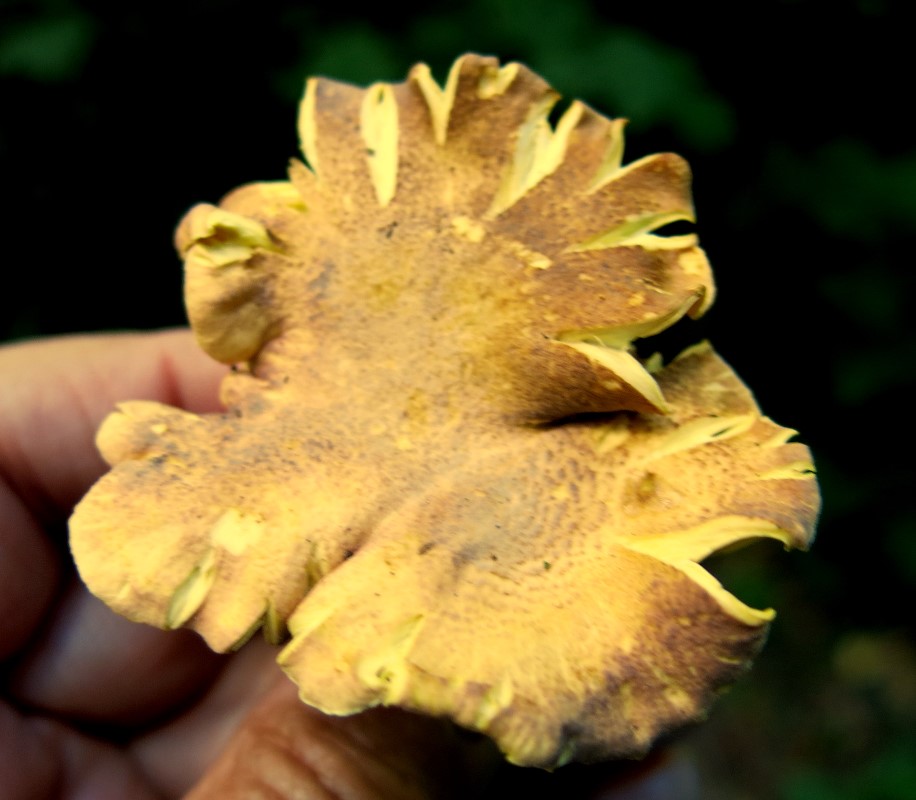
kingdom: Fungi
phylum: Basidiomycota
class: Agaricomycetes
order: Cantharellales
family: Hydnaceae
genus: Cantharellus
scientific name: Cantharellus amethysteus
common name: ametyst-kantarel
